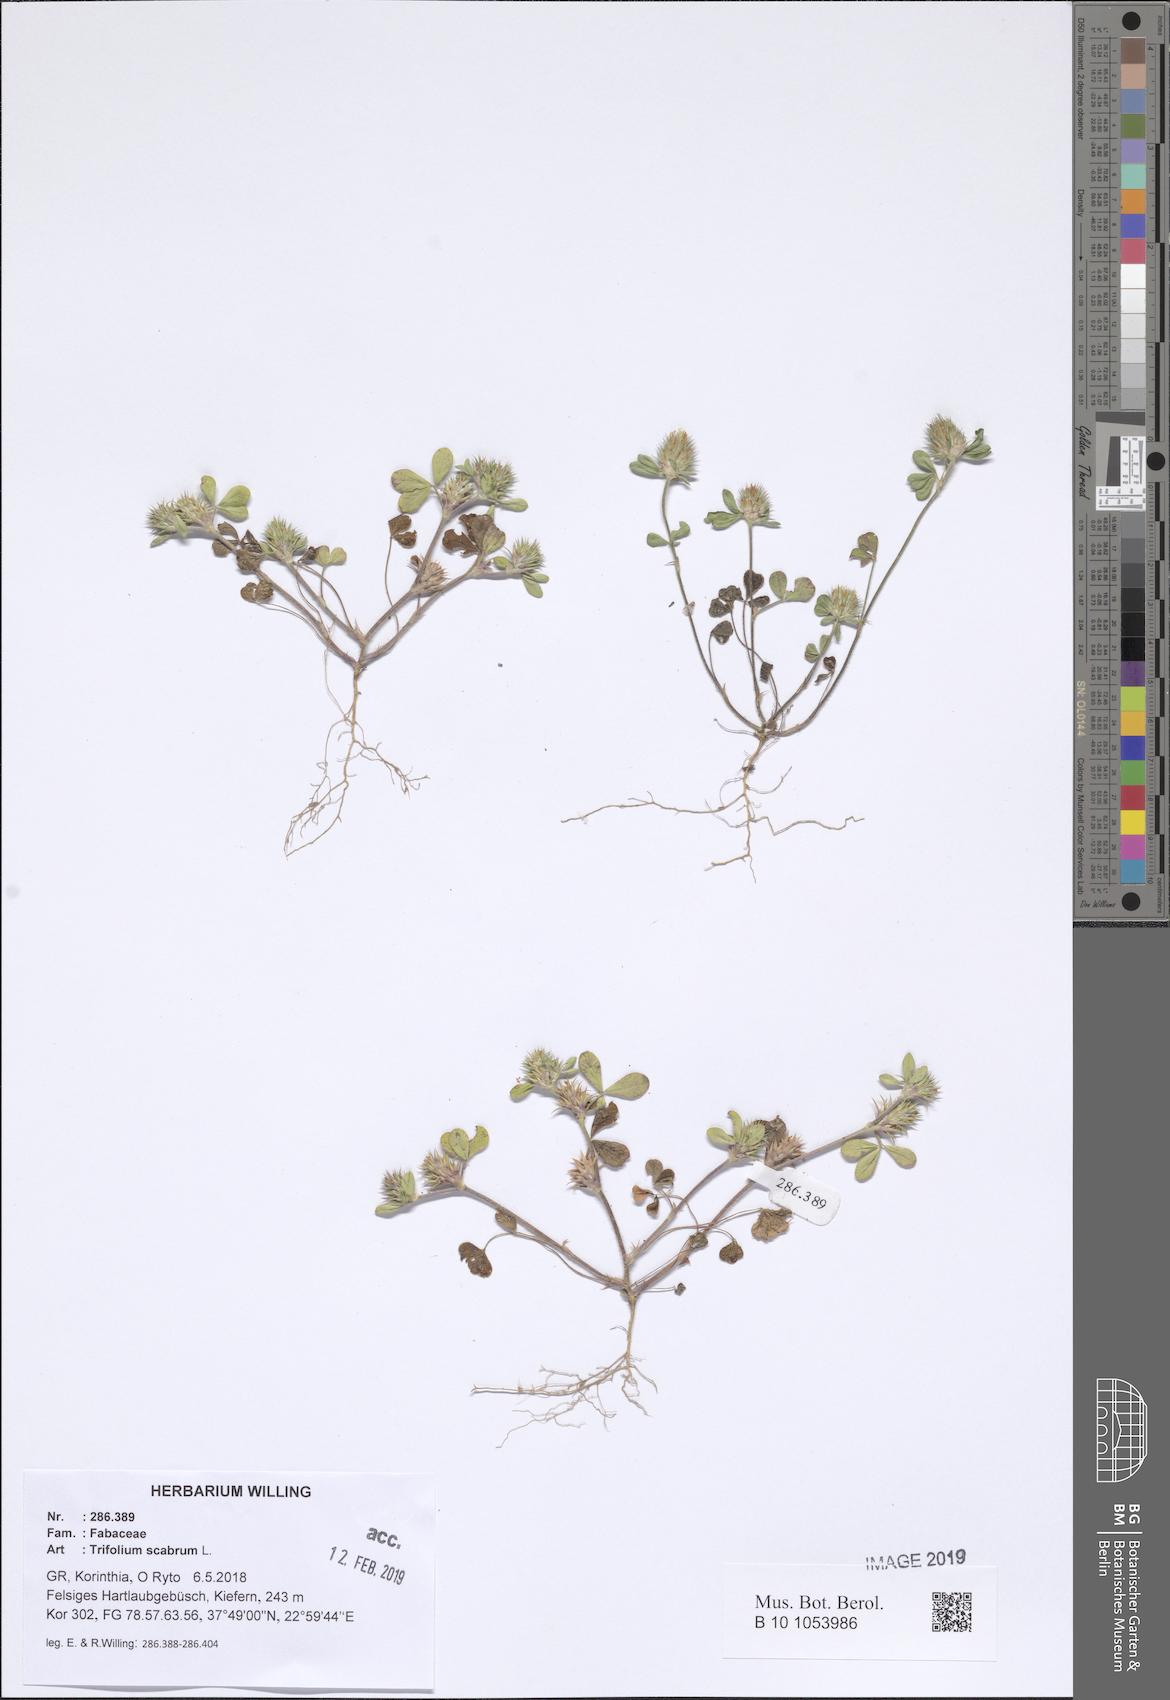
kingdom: Plantae
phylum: Tracheophyta
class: Magnoliopsida
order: Fabales
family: Fabaceae
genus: Trifolium
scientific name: Trifolium scabrum
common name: Rough clover
